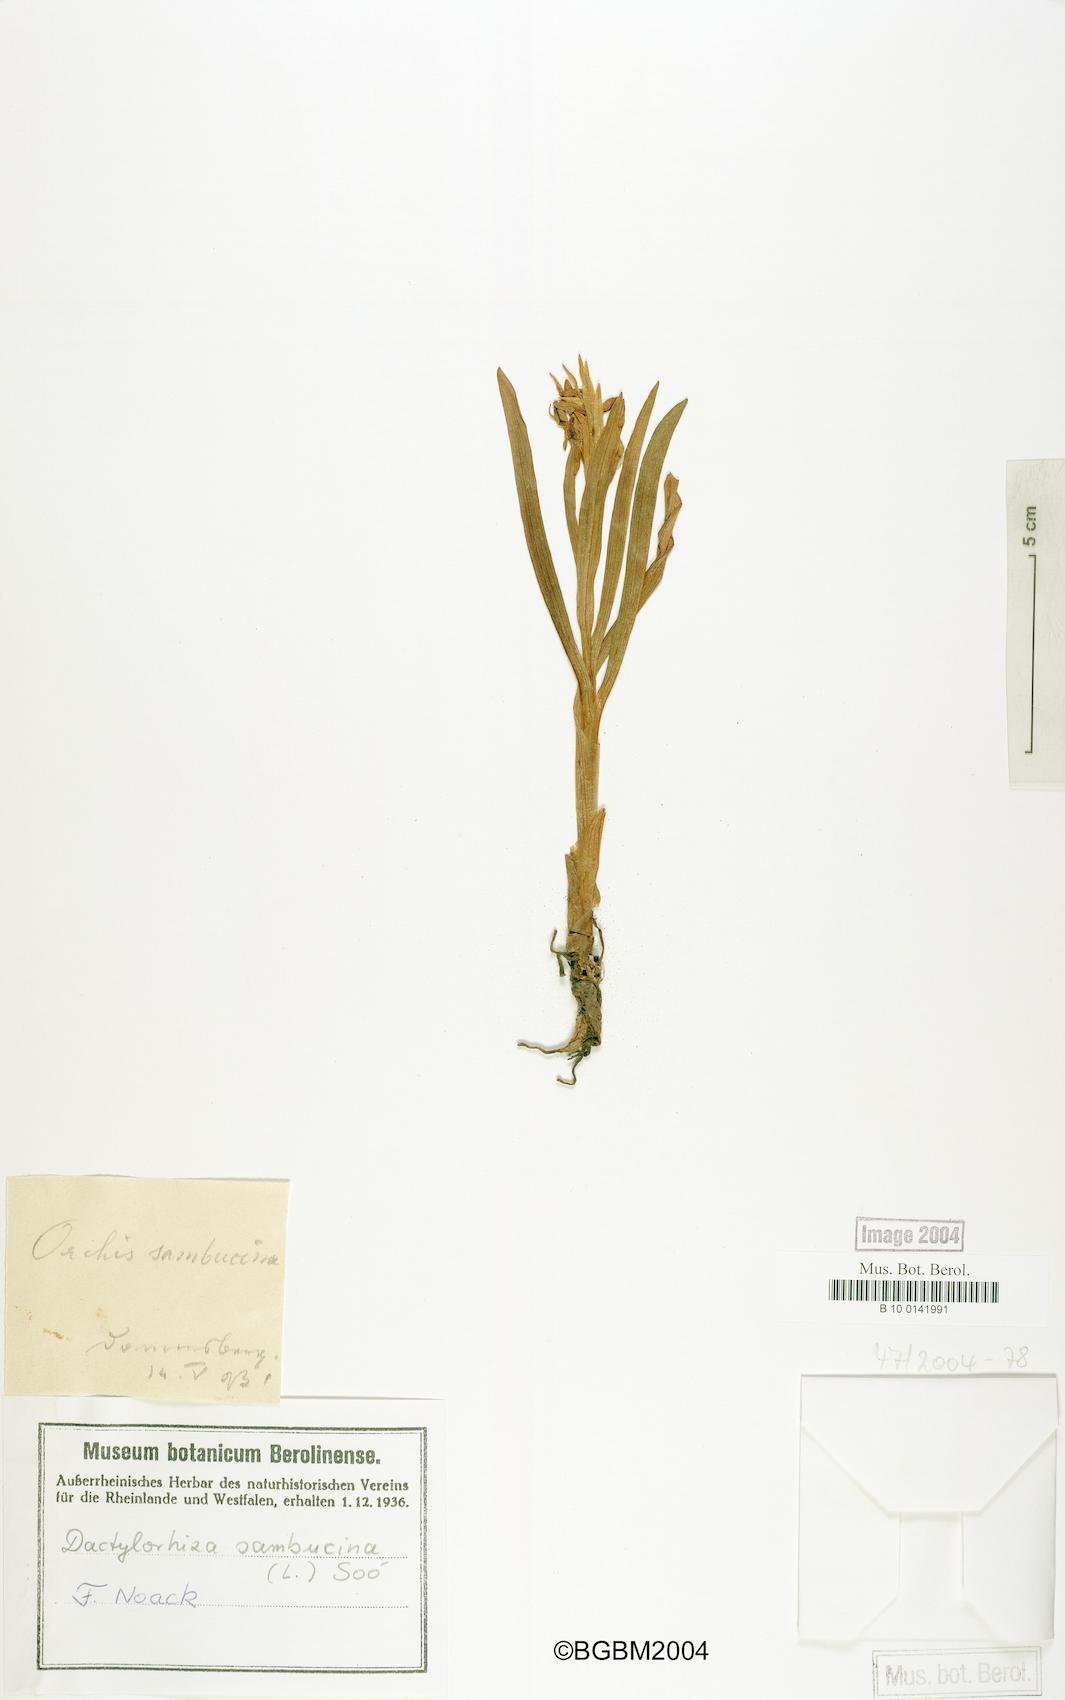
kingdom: Plantae
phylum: Tracheophyta
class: Liliopsida
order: Asparagales
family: Orchidaceae
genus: Dactylorhiza
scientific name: Dactylorhiza sambucina
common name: Elder-flowered orchid
